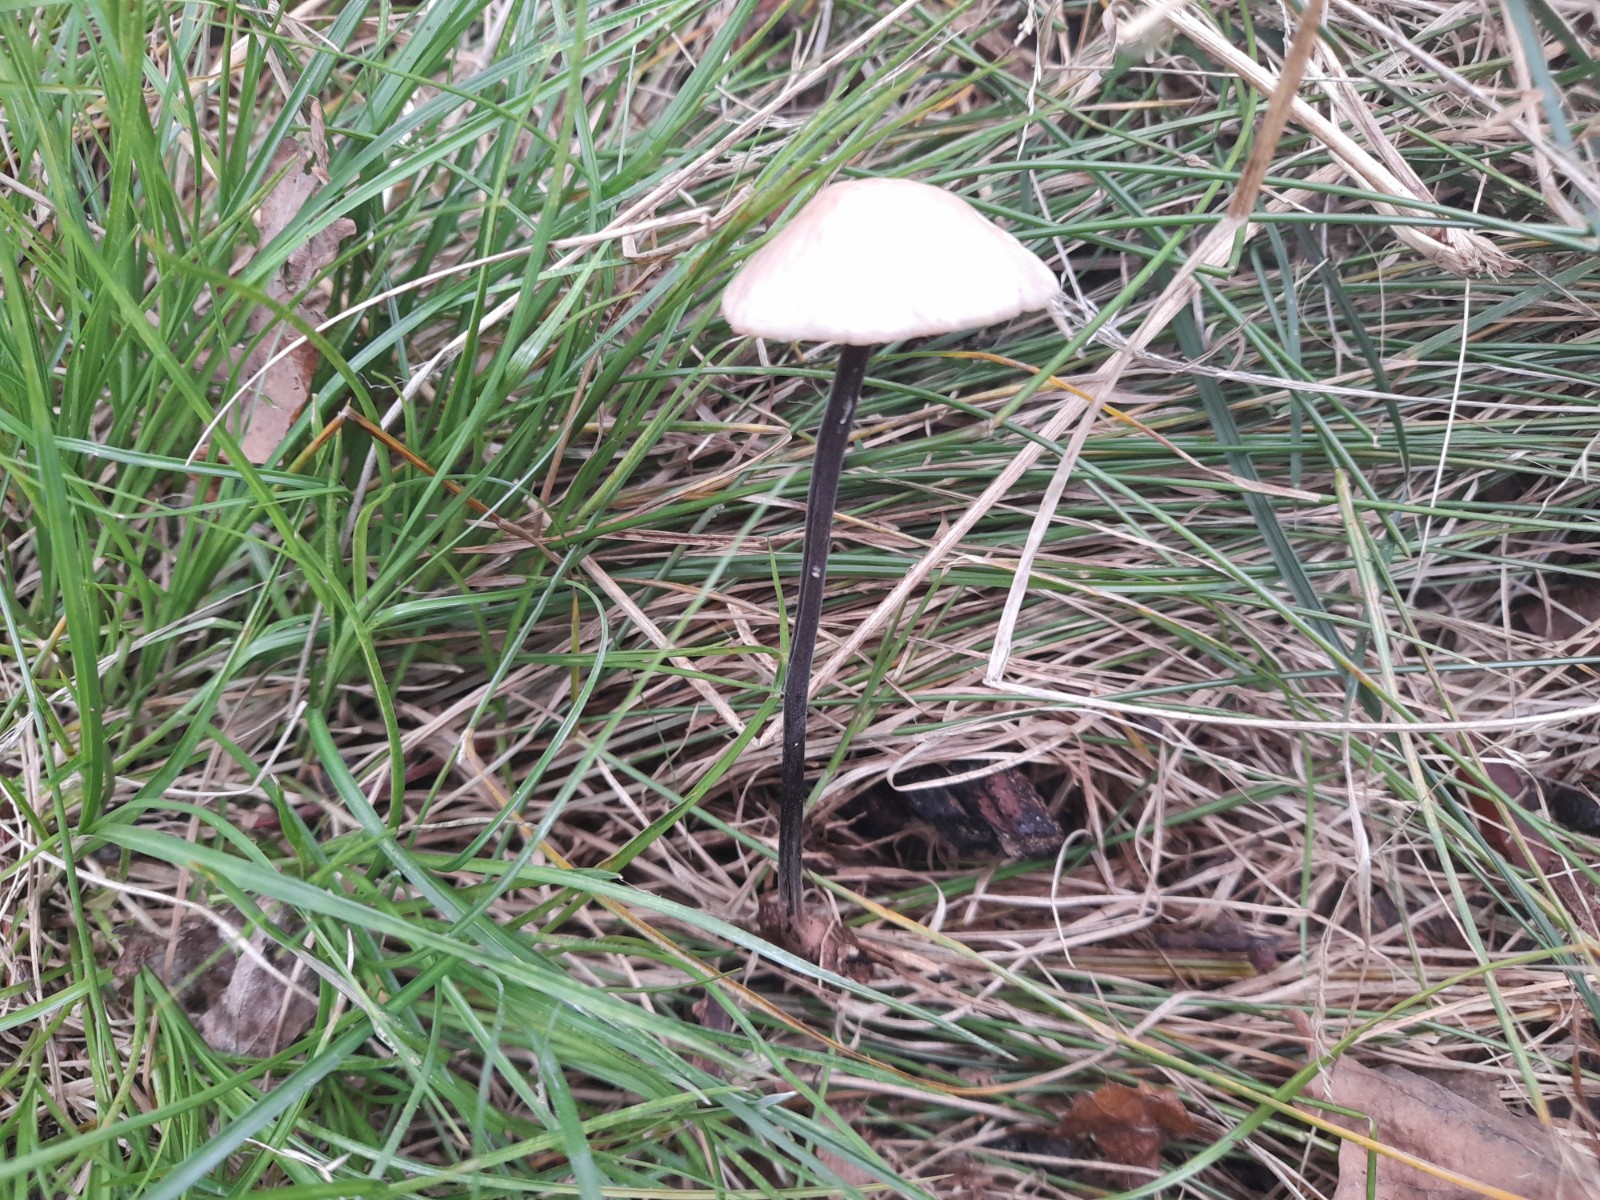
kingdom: Fungi
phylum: Basidiomycota
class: Agaricomycetes
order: Agaricales
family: Omphalotaceae
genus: Mycetinis
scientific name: Mycetinis alliaceus
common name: stor løghat
